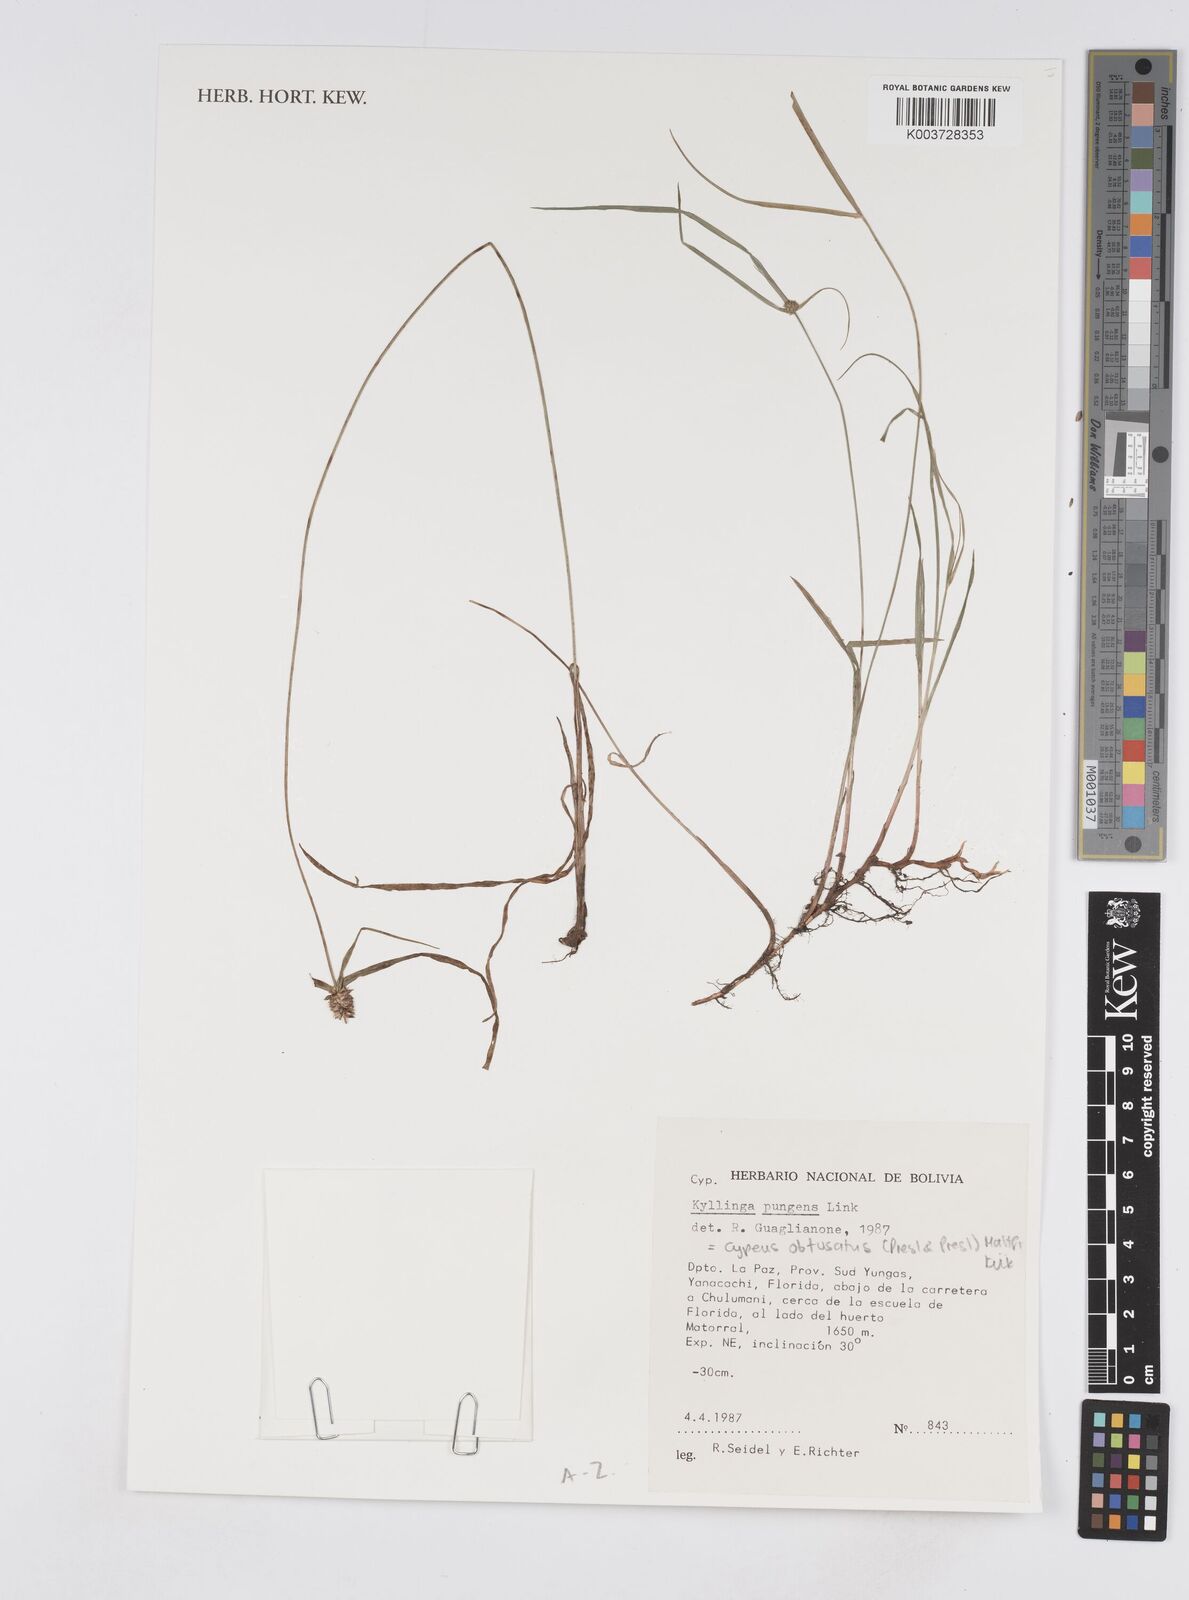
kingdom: Plantae
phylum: Tracheophyta
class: Liliopsida
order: Poales
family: Cyperaceae
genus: Cyperus
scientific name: Cyperus obtusatus
